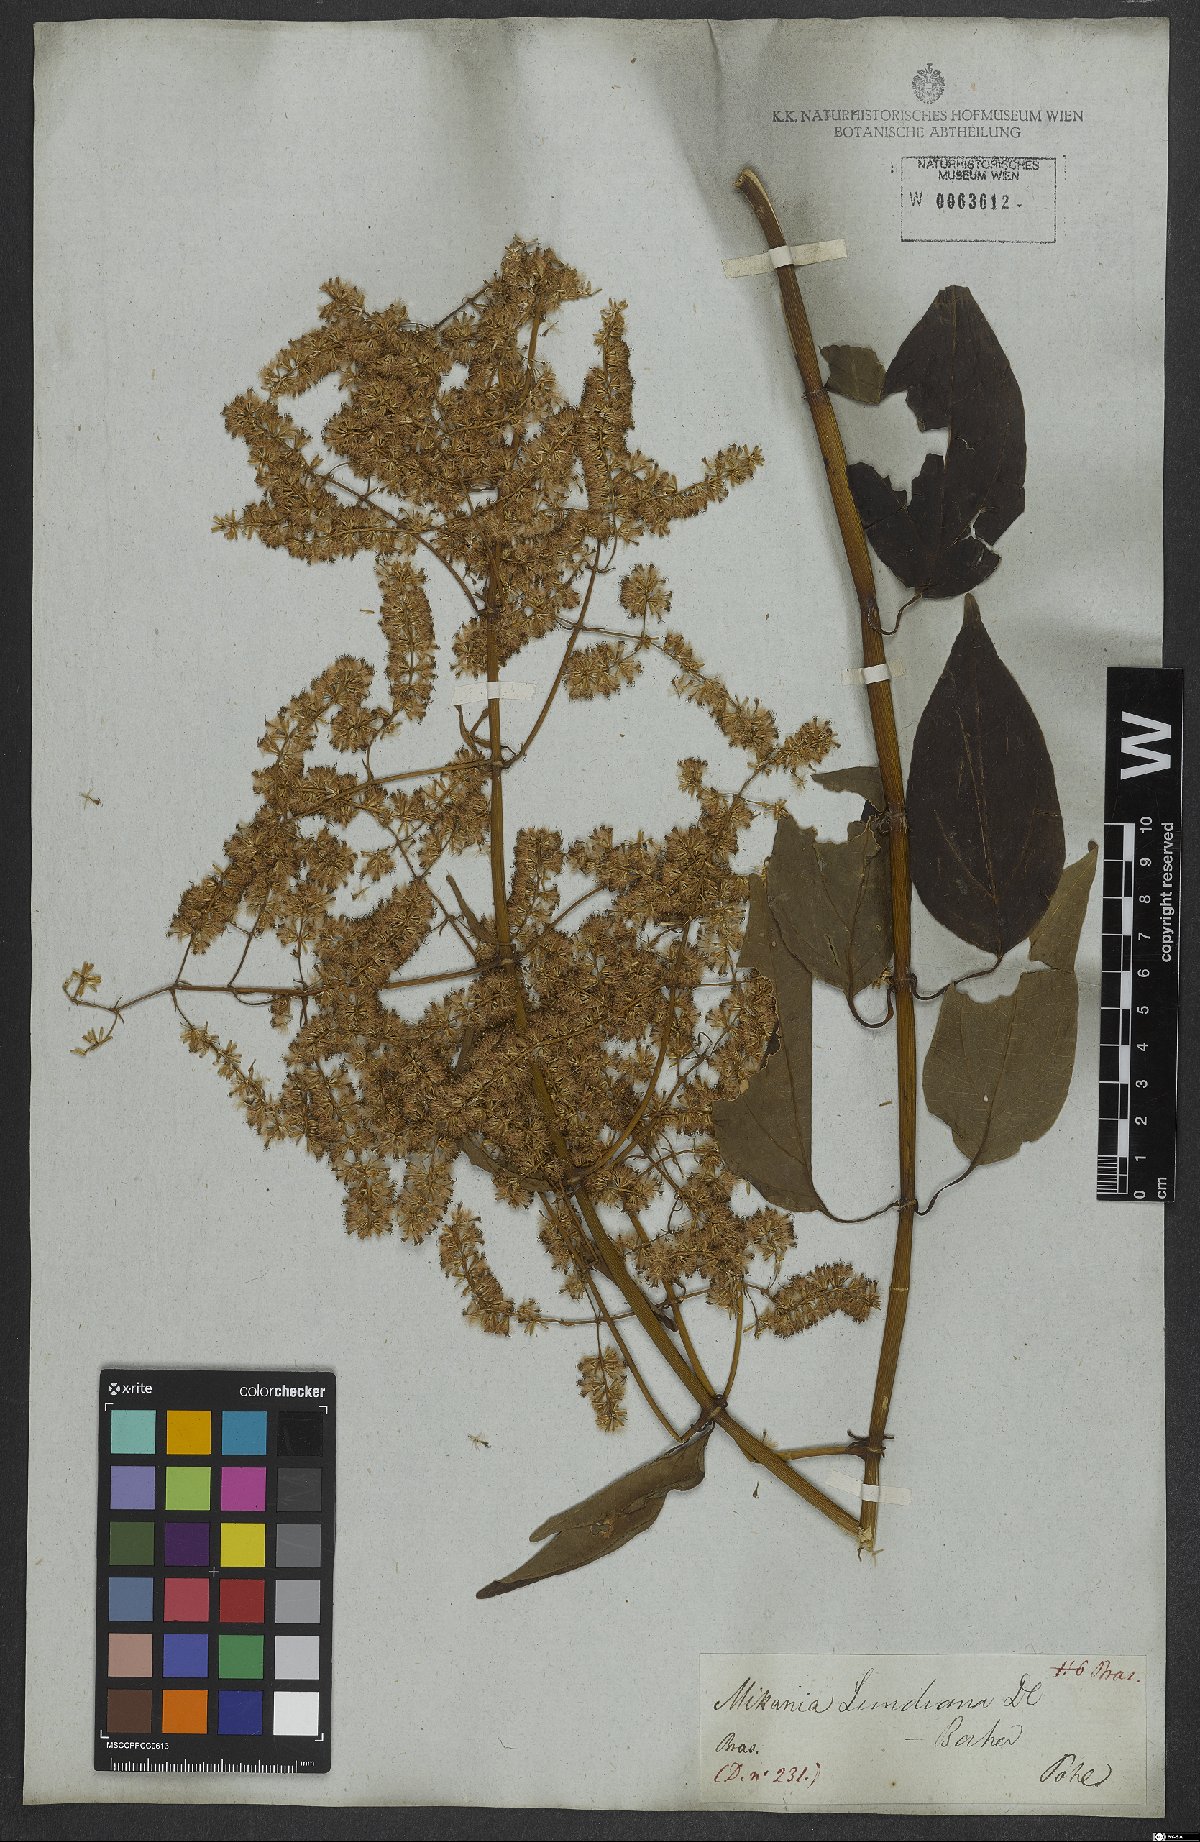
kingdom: Plantae
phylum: Tracheophyta
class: Magnoliopsida
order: Asterales
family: Asteraceae
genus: Mikania
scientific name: Mikania lundiana
